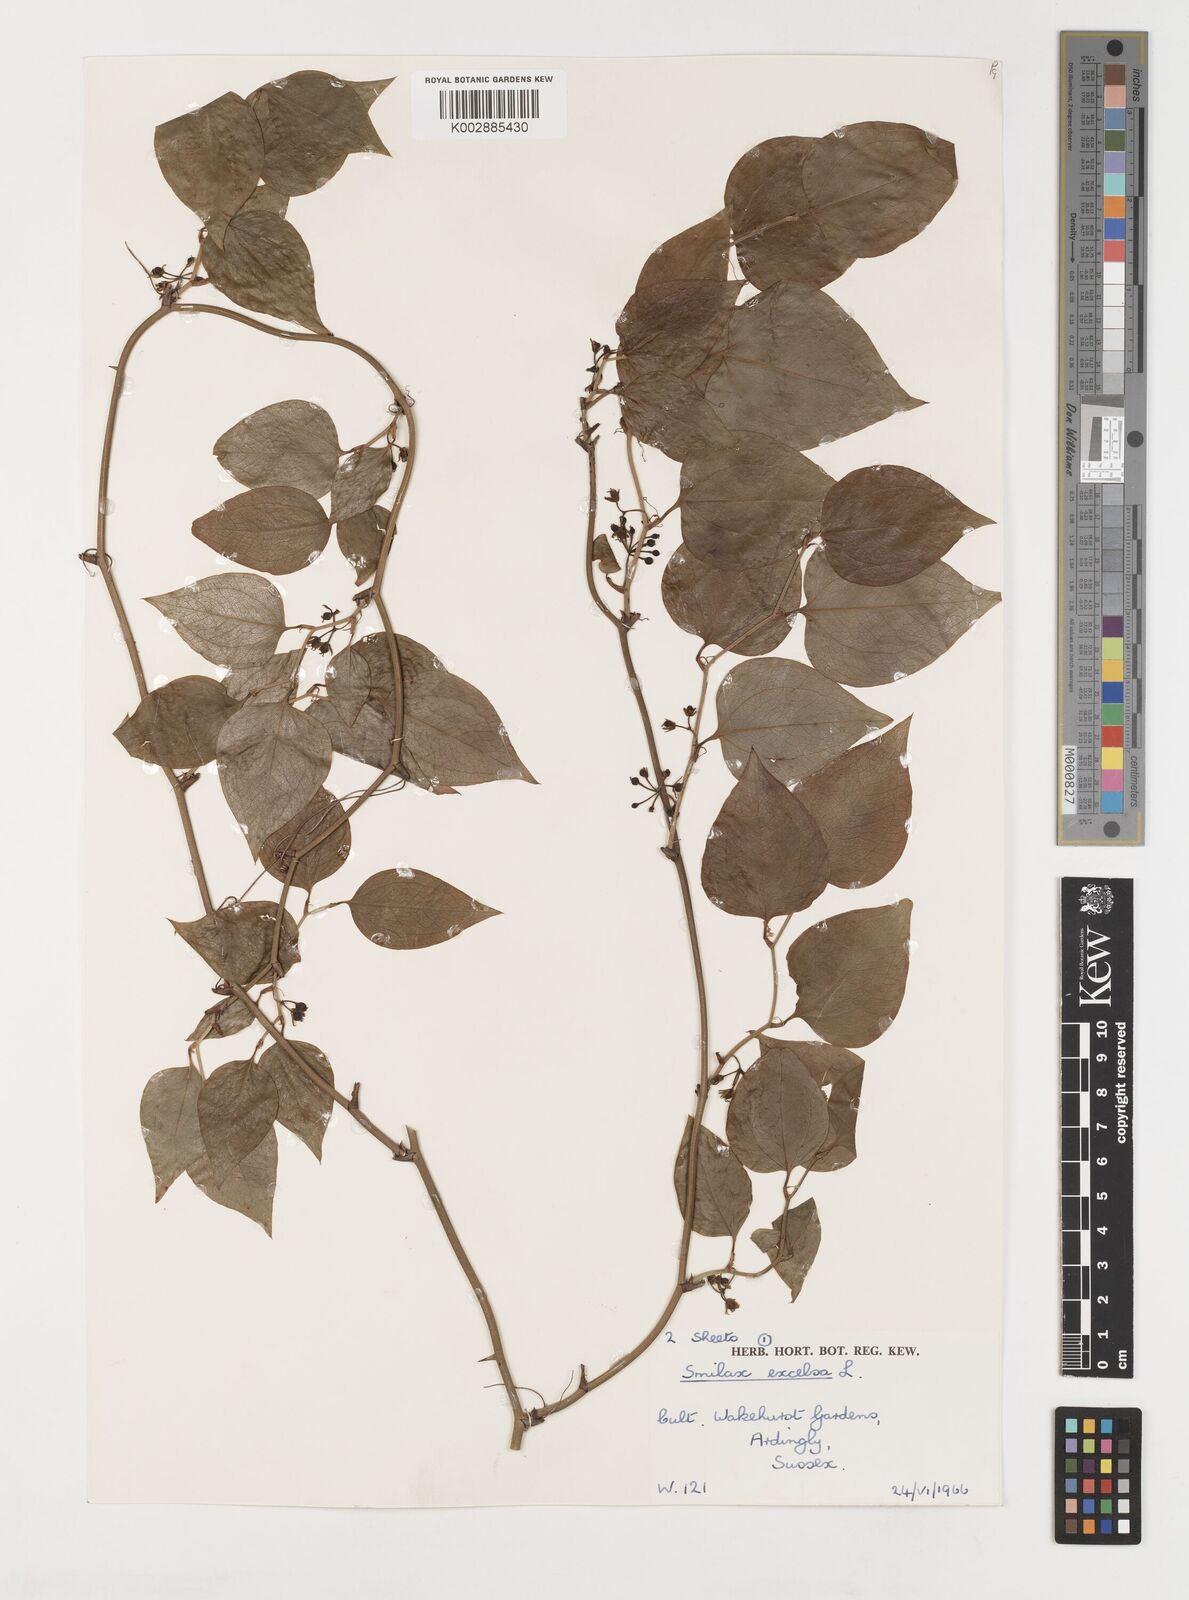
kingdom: Plantae
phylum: Tracheophyta
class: Liliopsida
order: Liliales
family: Smilacaceae
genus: Smilax
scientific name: Smilax excelsa
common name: Larger smilax
